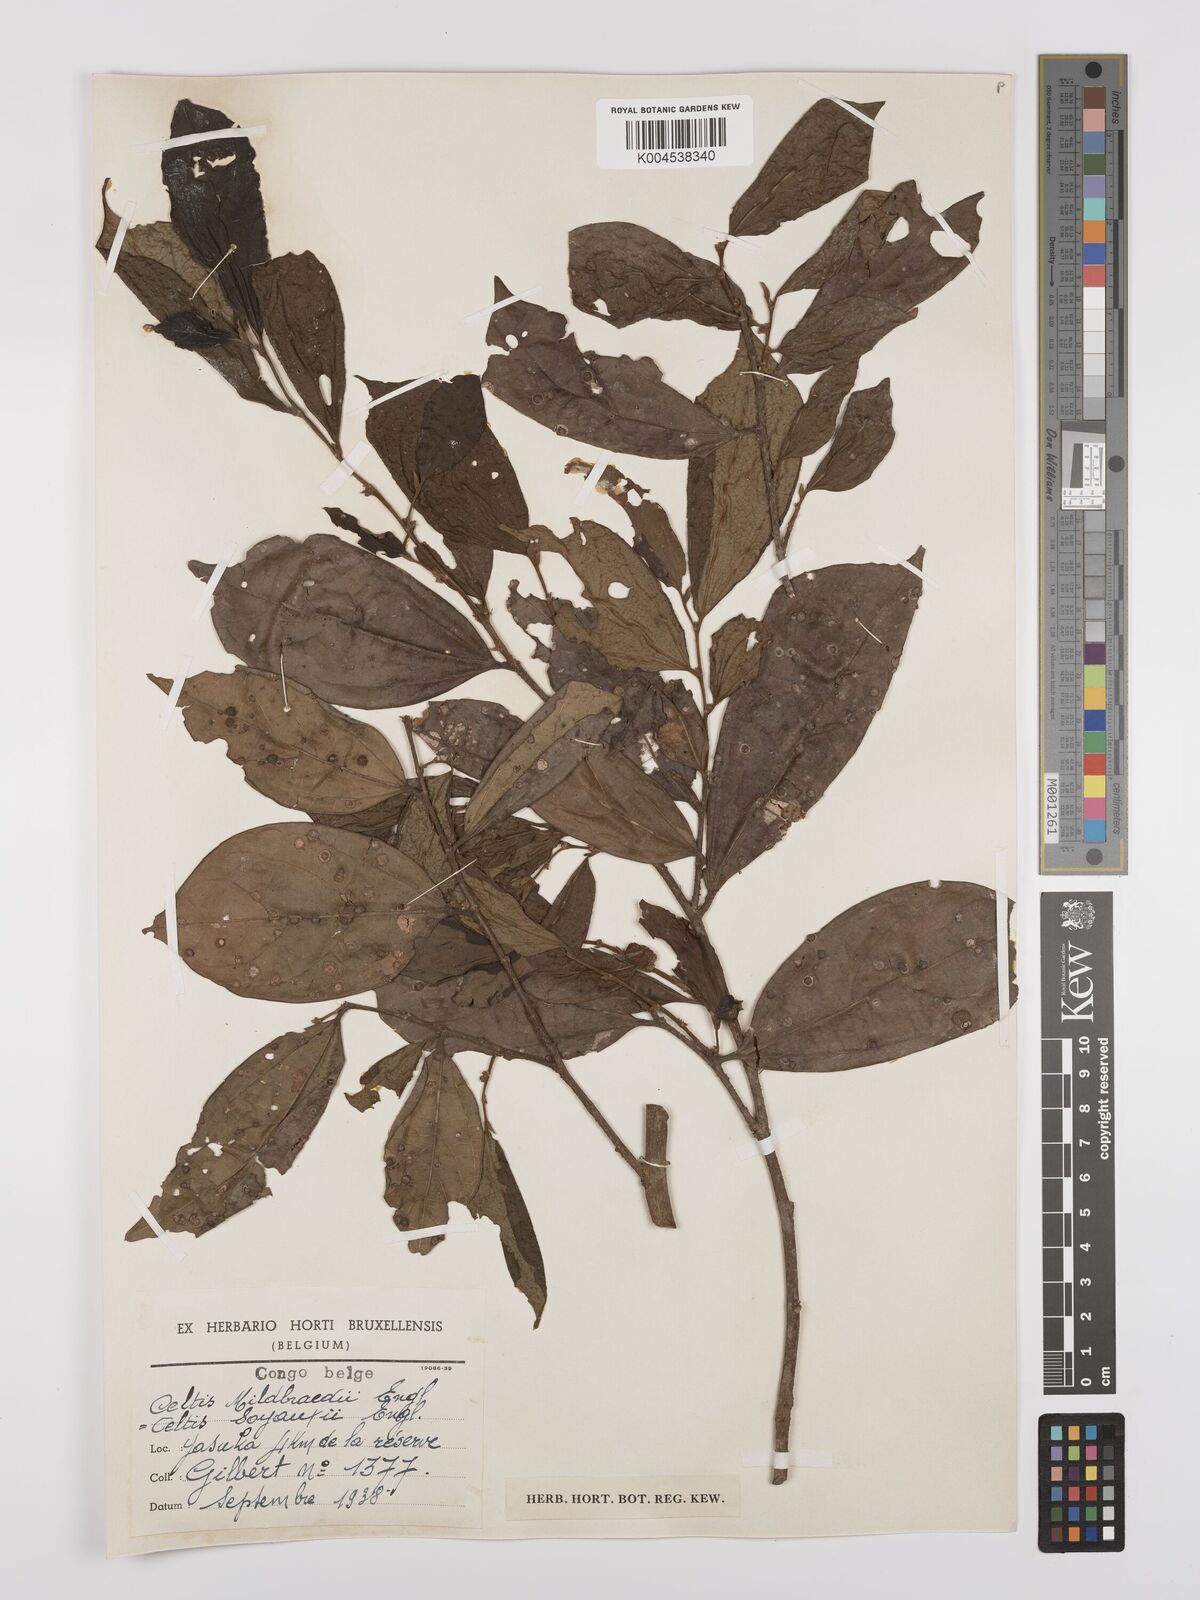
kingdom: Plantae
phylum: Tracheophyta
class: Magnoliopsida
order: Rosales
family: Cannabaceae
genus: Celtis
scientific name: Celtis mildbraedii
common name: Red-fruited stinkwood
